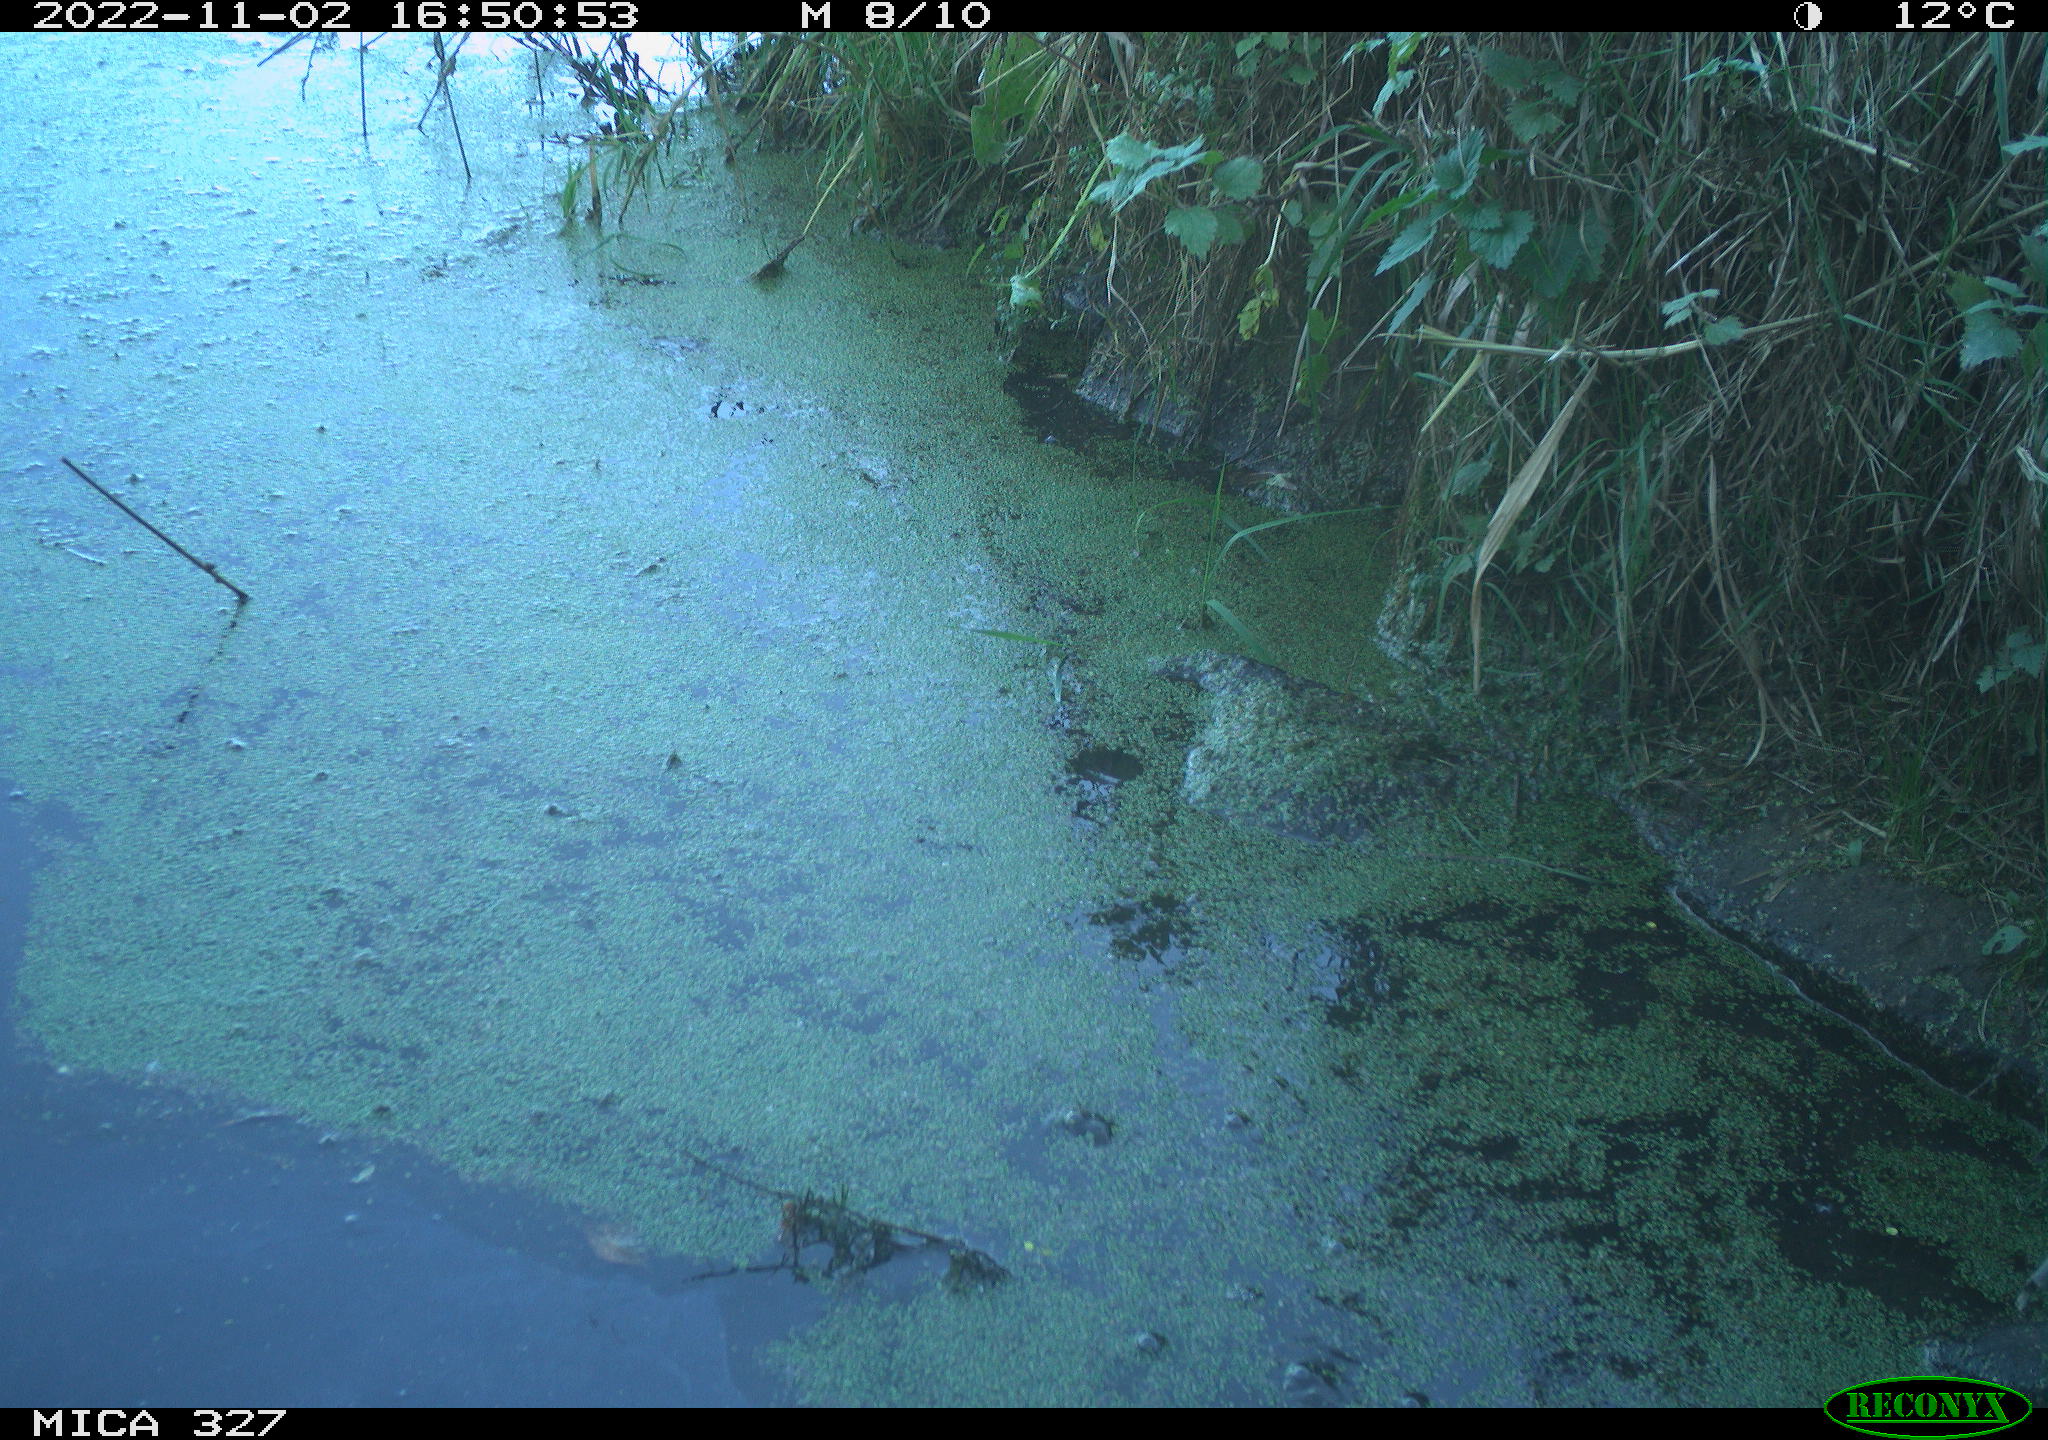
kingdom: Animalia
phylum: Chordata
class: Aves
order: Pelecaniformes
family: Ardeidae
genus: Ardea
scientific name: Ardea cinerea
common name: Grey heron
